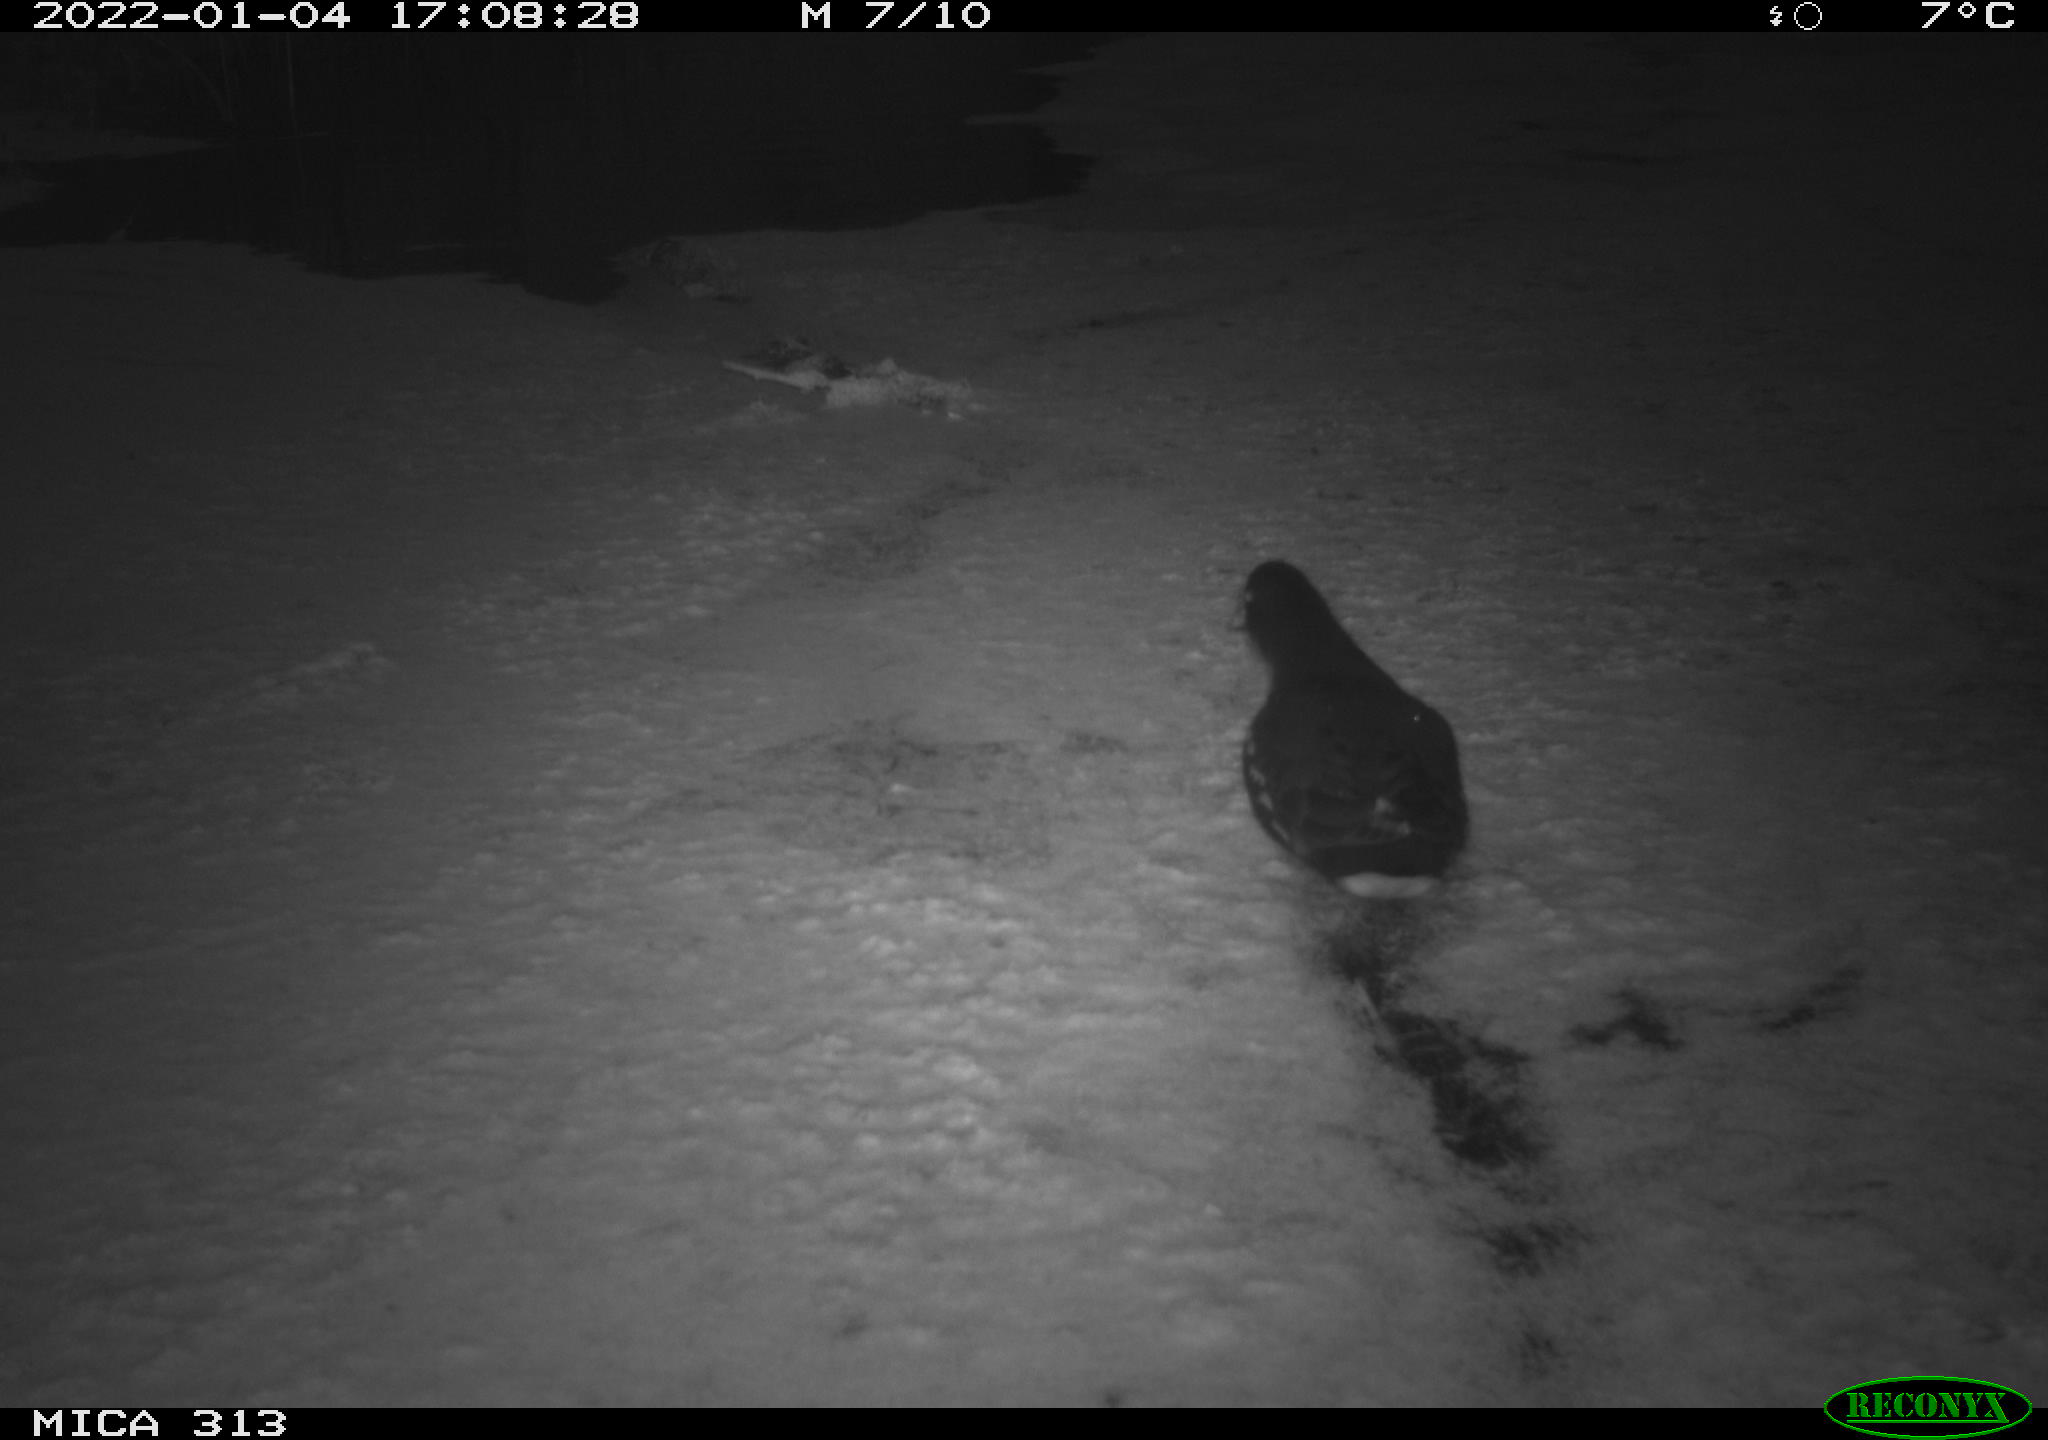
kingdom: Animalia
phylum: Chordata
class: Aves
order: Gruiformes
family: Rallidae
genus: Gallinula
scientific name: Gallinula chloropus
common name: Common moorhen
